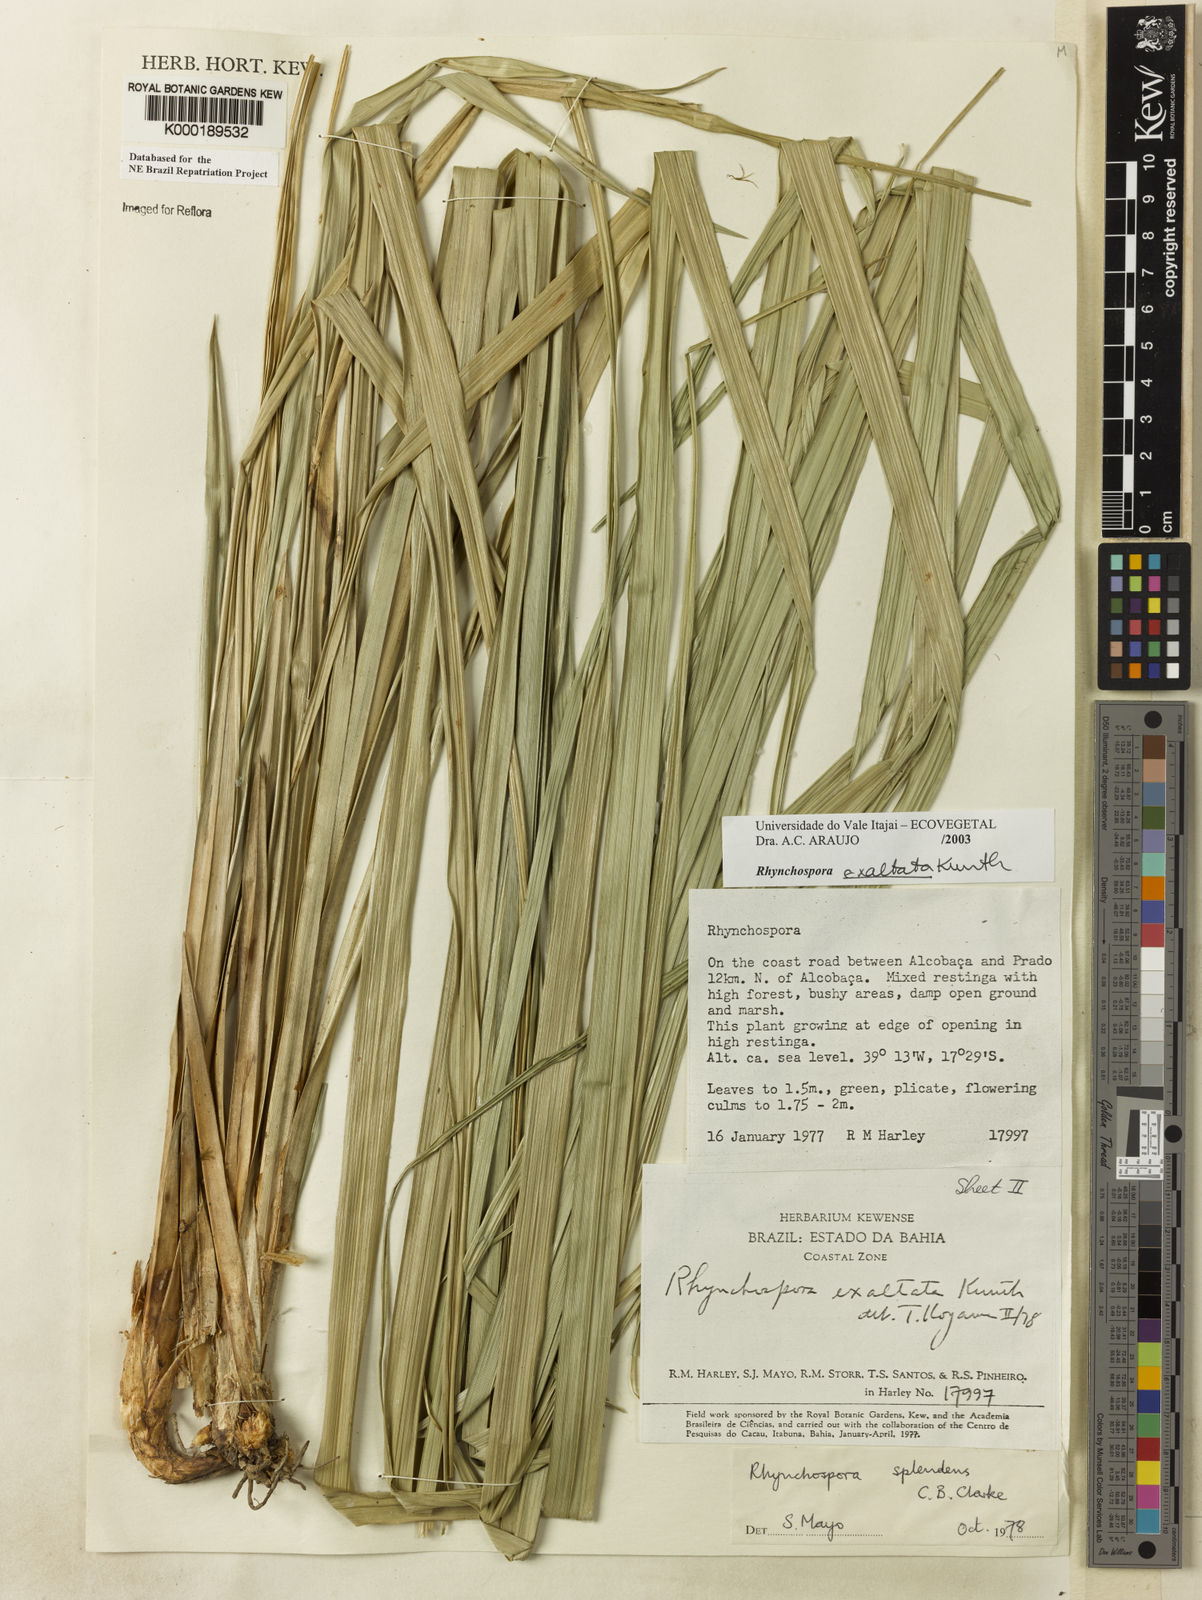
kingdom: Plantae
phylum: Tracheophyta
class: Liliopsida
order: Poales
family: Cyperaceae
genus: Rhynchospora
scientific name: Rhynchospora exaltata
